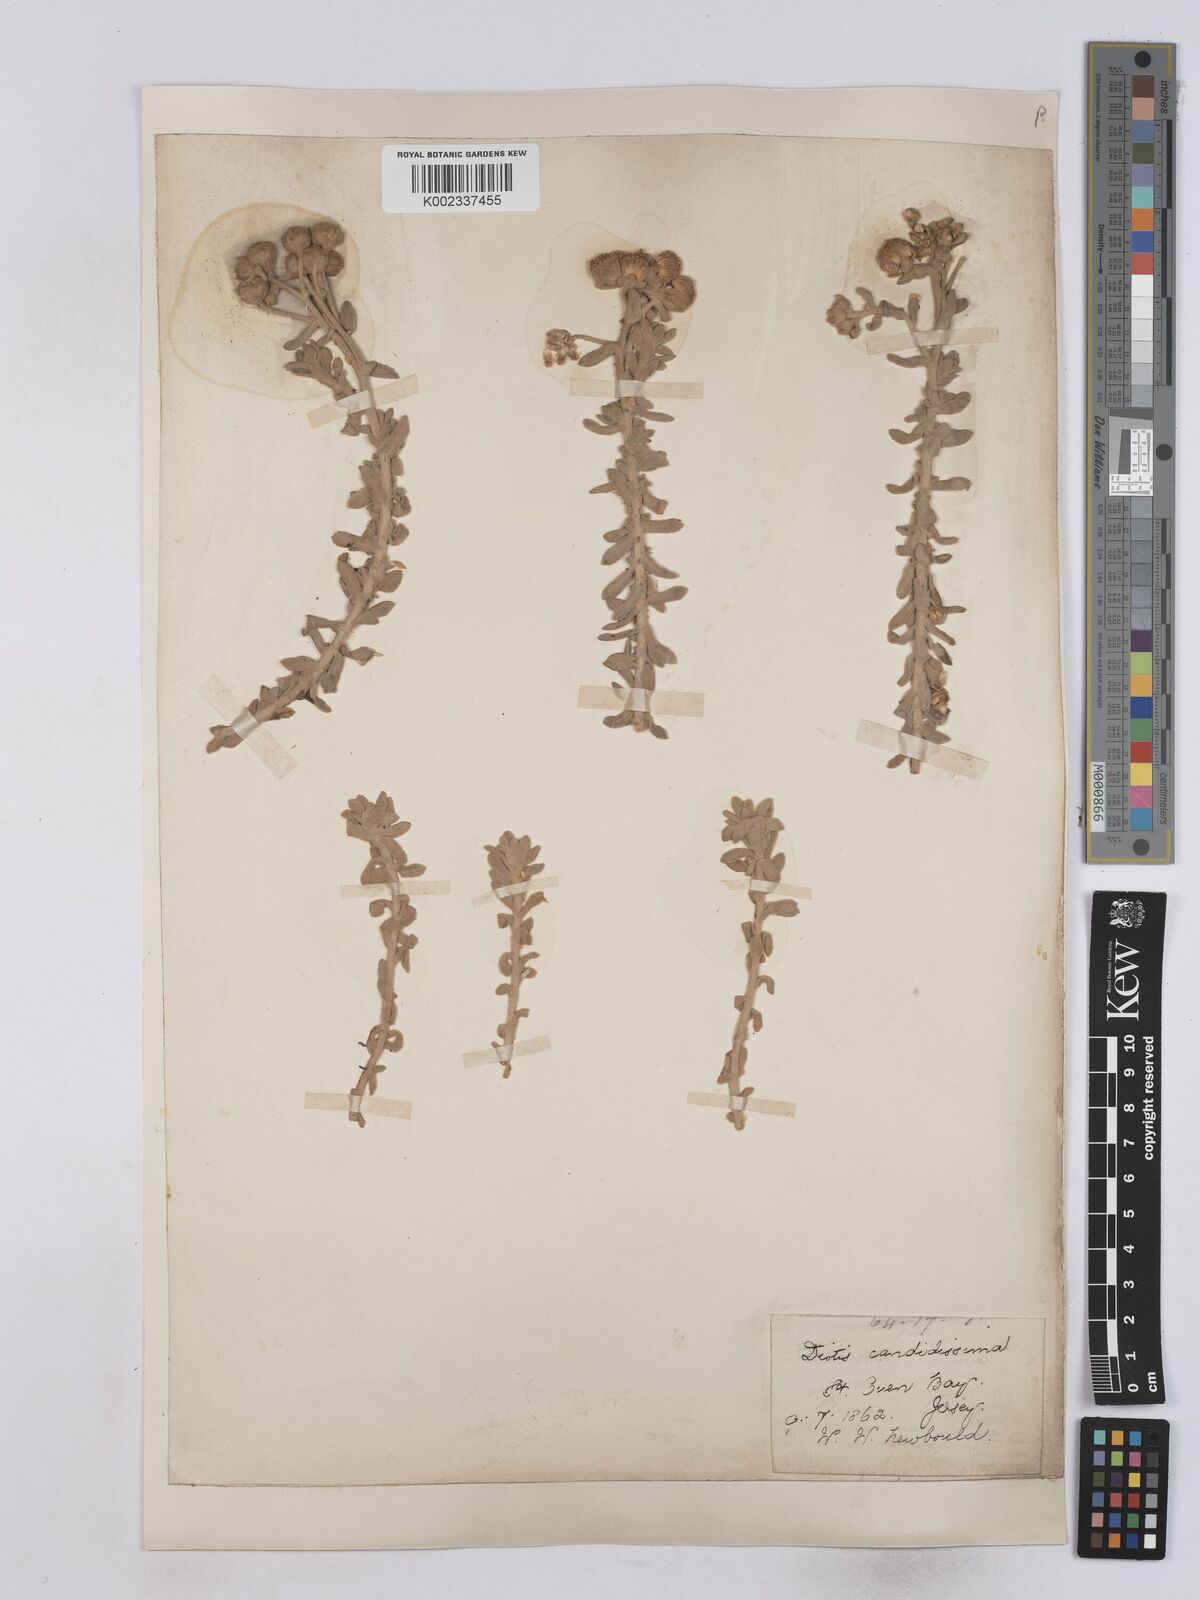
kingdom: Plantae
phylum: Tracheophyta
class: Magnoliopsida
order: Asterales
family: Asteraceae
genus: Achillea
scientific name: Achillea maritima
